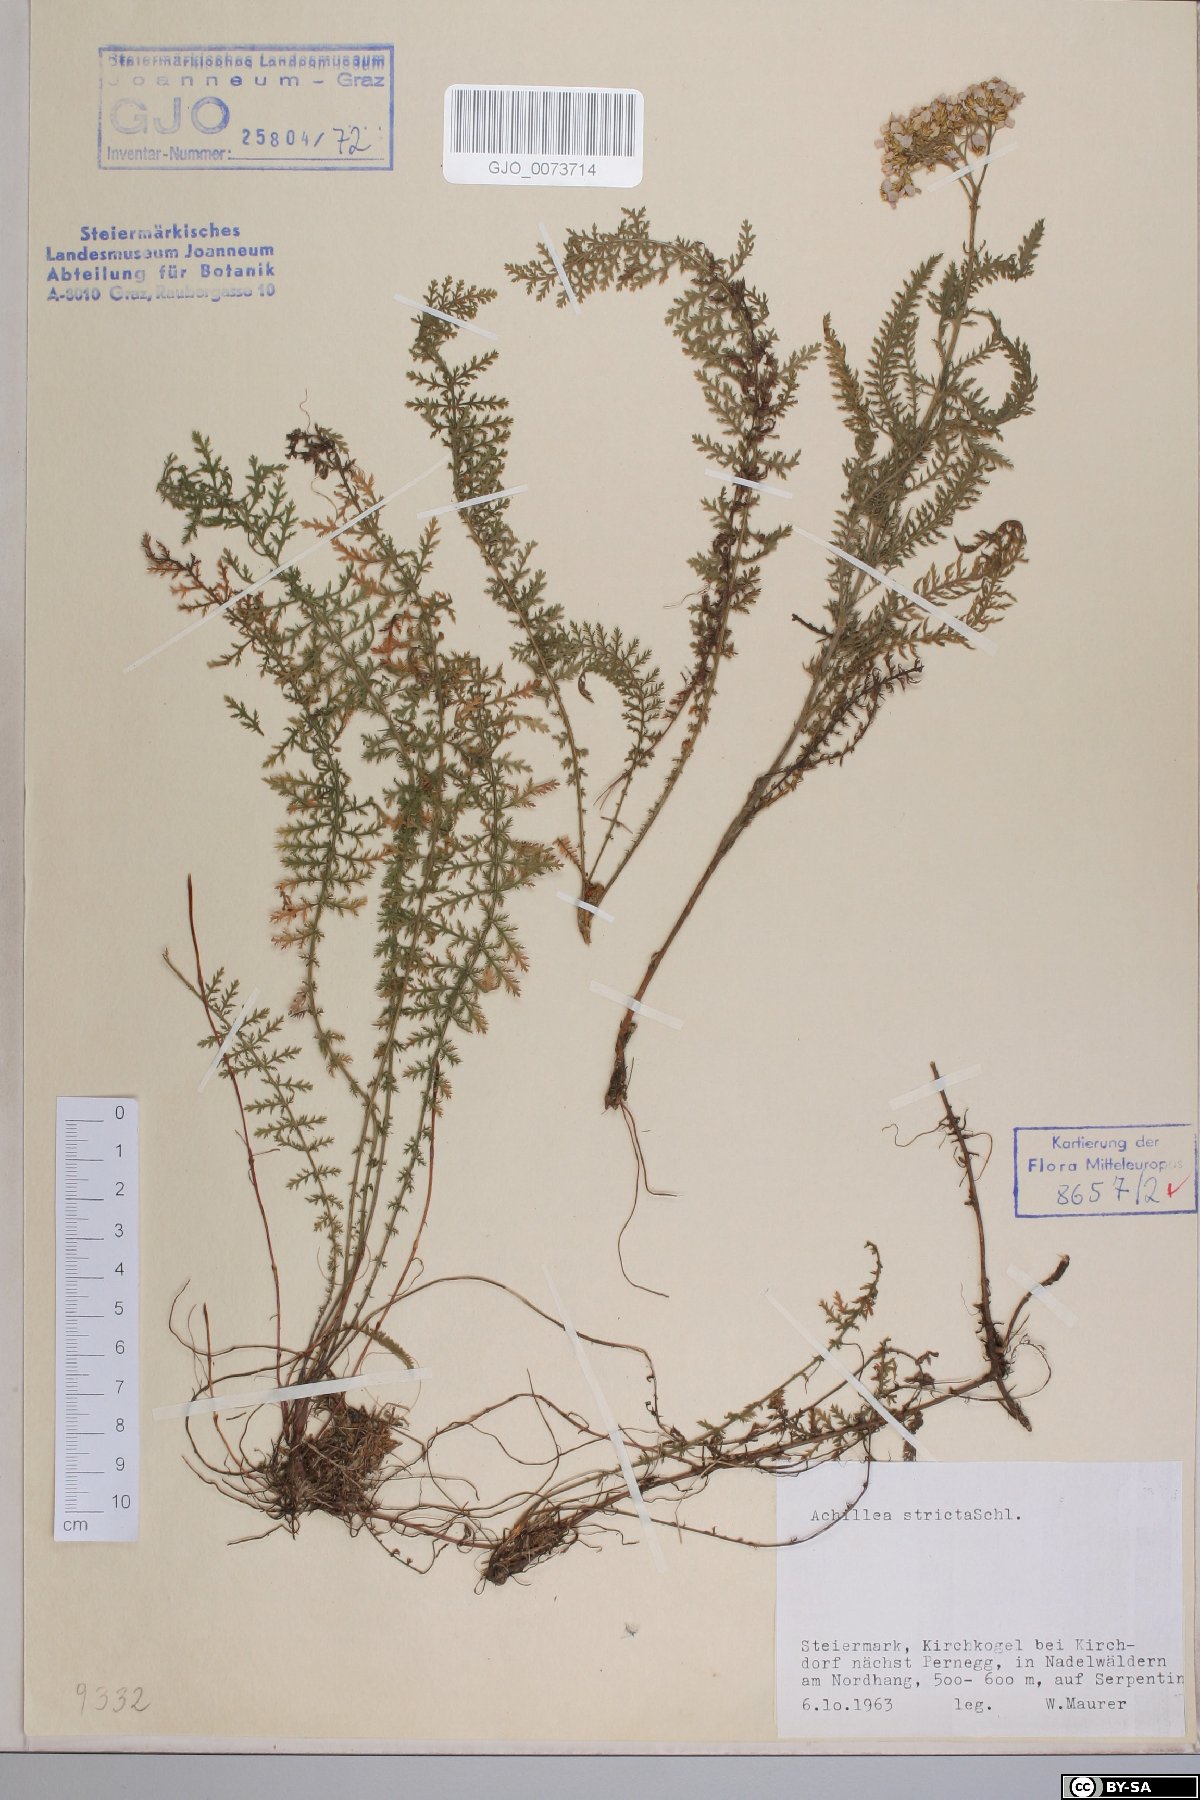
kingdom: Plantae
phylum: Tracheophyta
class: Magnoliopsida
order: Asterales
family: Asteraceae
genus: Achillea
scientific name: Achillea distans
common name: Tall yarrow
